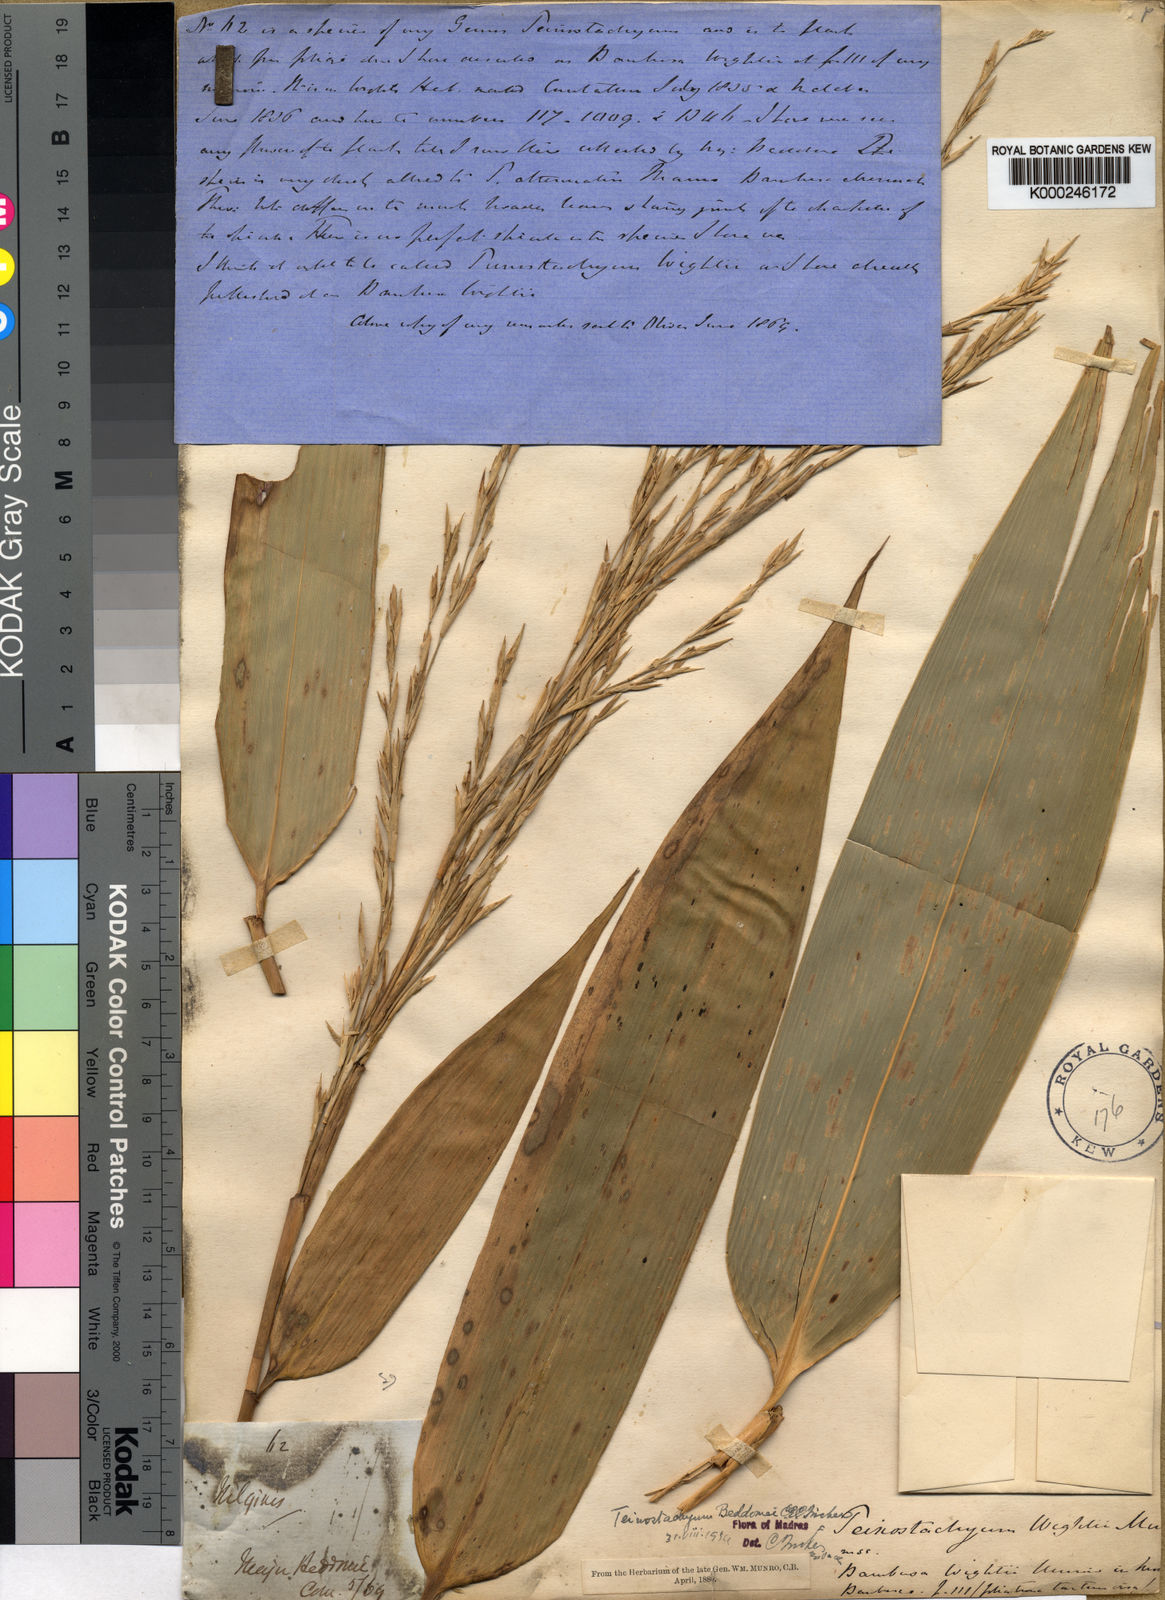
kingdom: Plantae
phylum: Tracheophyta
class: Liliopsida
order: Poales
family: Poaceae
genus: Schizostachyum
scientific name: Schizostachyum beddomei
